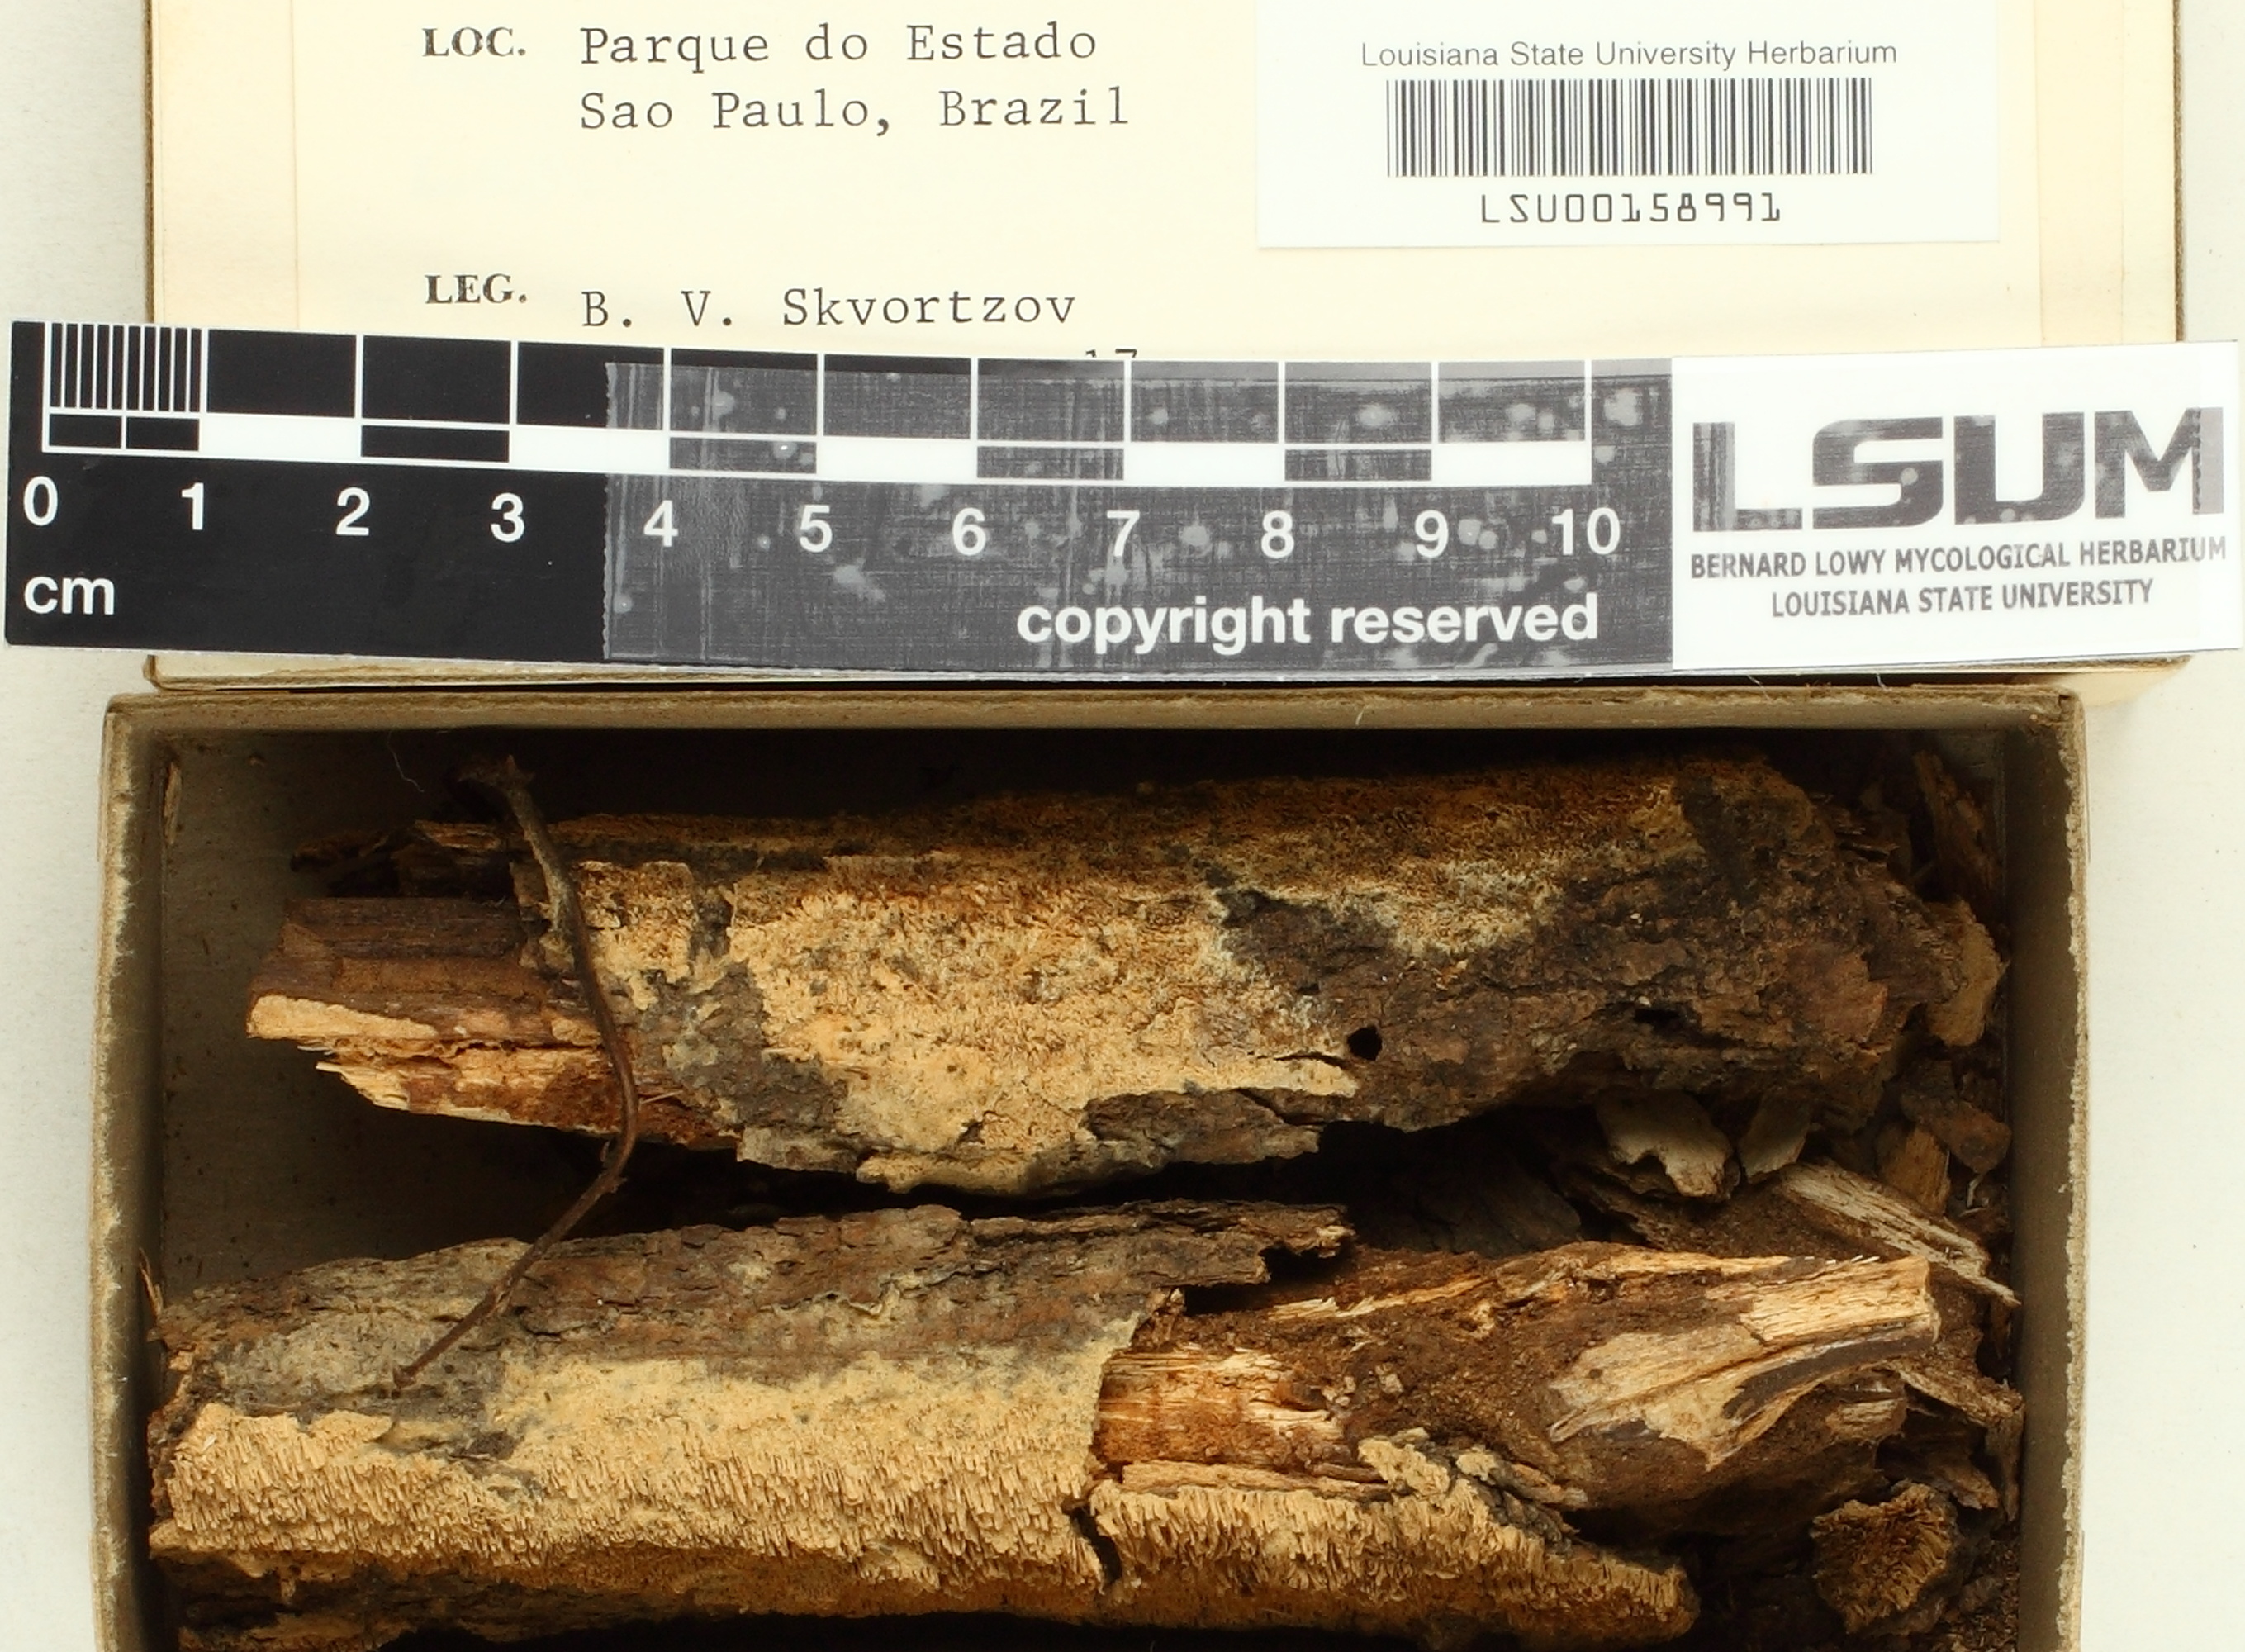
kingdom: Fungi
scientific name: Fungi
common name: Fungi
